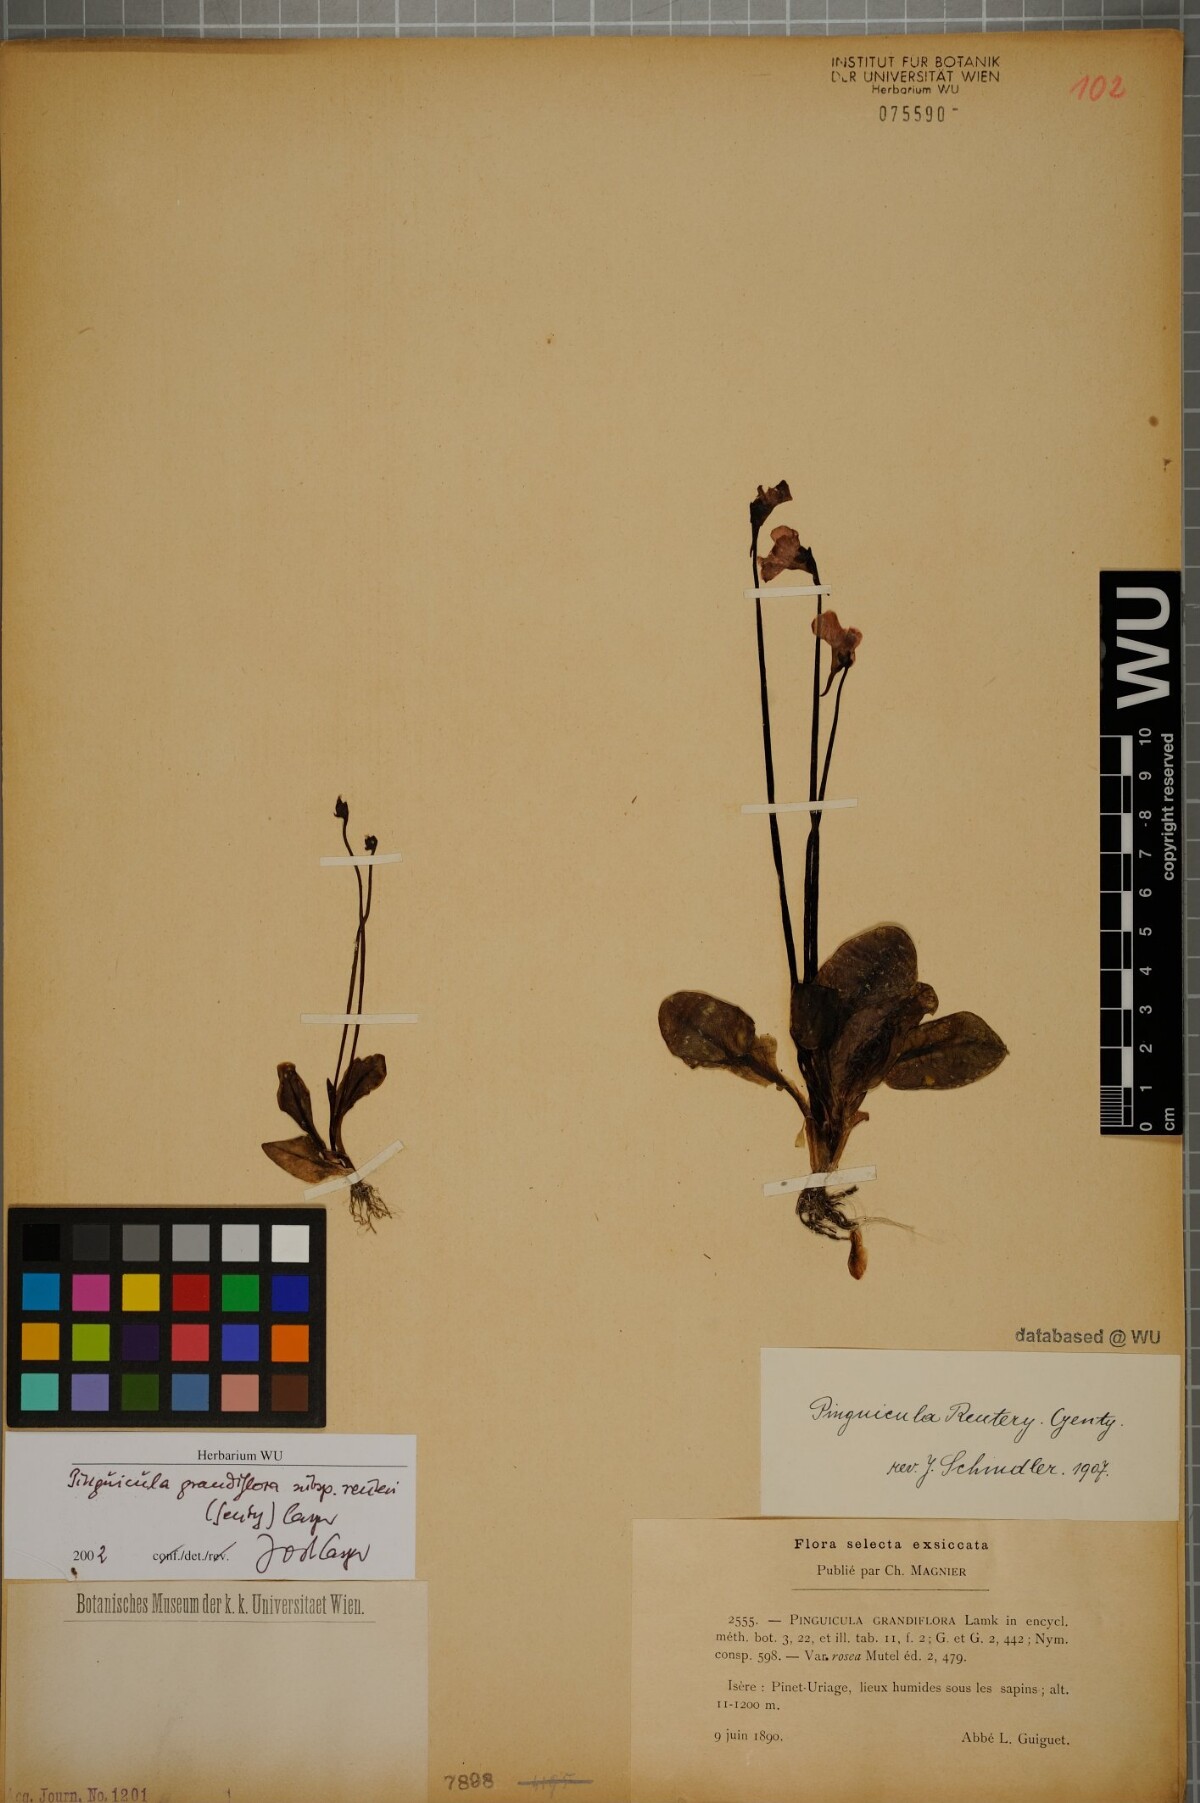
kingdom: Plantae
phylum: Tracheophyta
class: Magnoliopsida
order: Lamiales
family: Lentibulariaceae
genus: Pinguicula
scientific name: Pinguicula grandiflora
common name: Large-flowered butterwort
